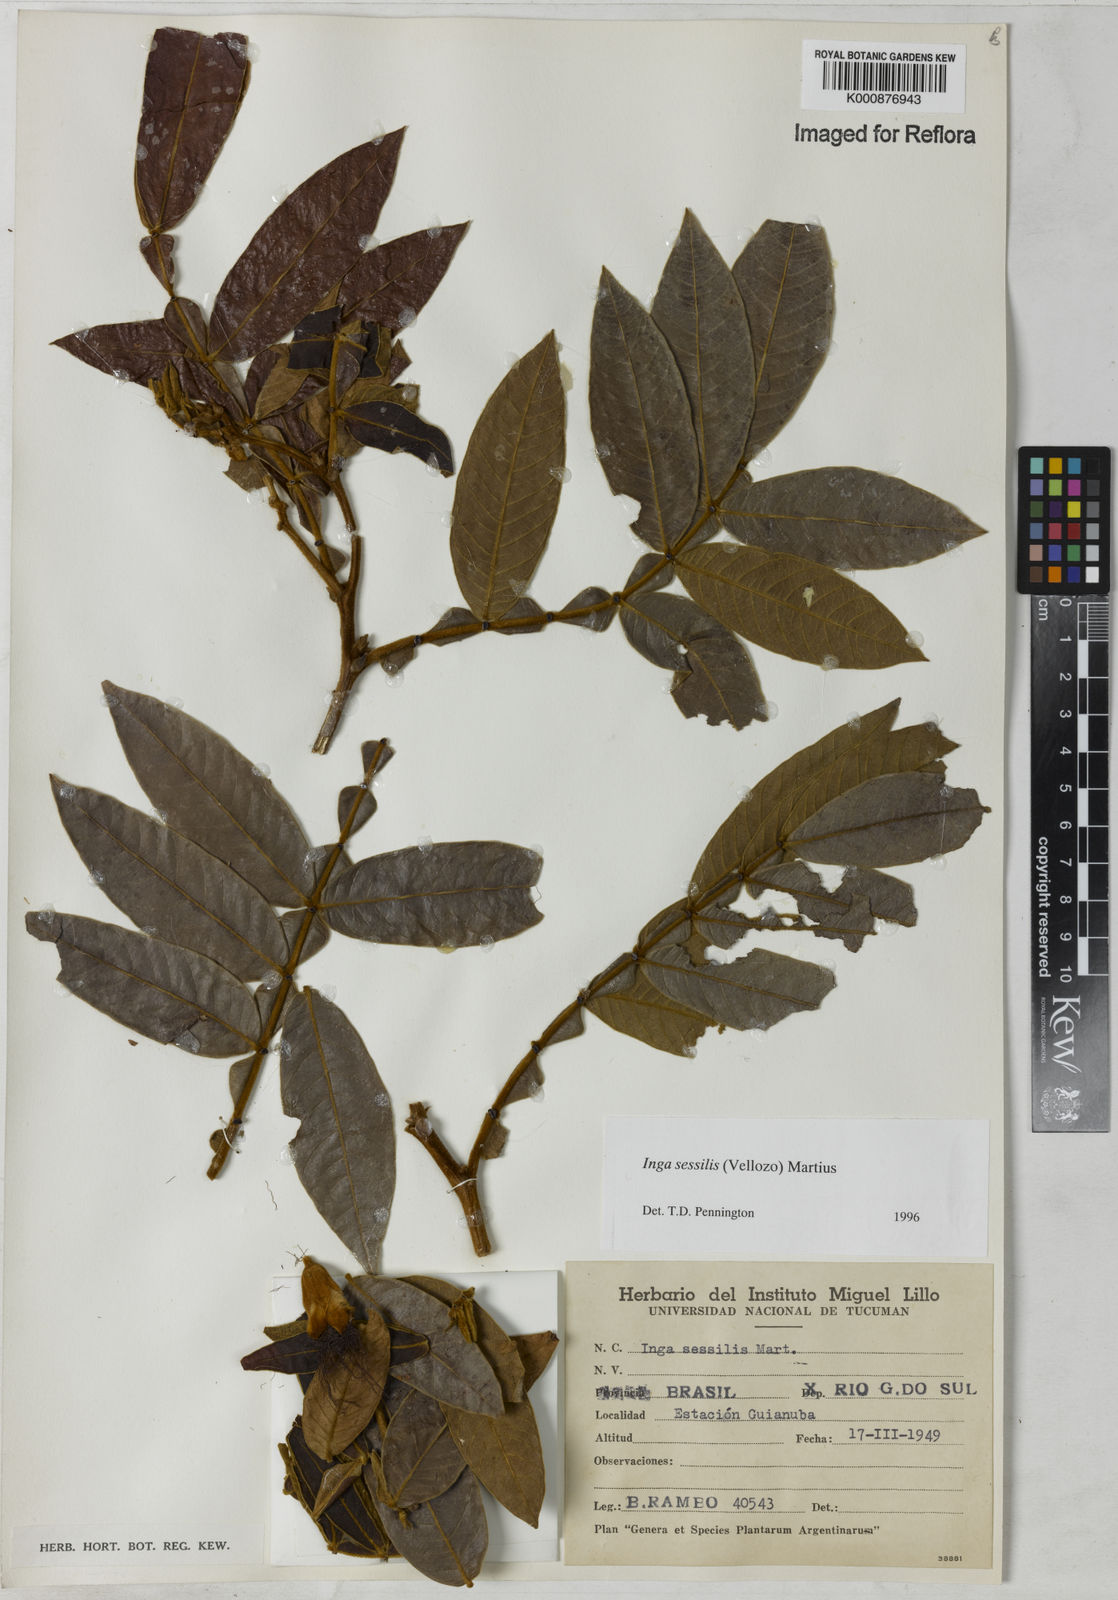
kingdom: Plantae
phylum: Tracheophyta
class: Magnoliopsida
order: Fabales
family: Fabaceae
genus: Inga
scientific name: Inga sessilis
